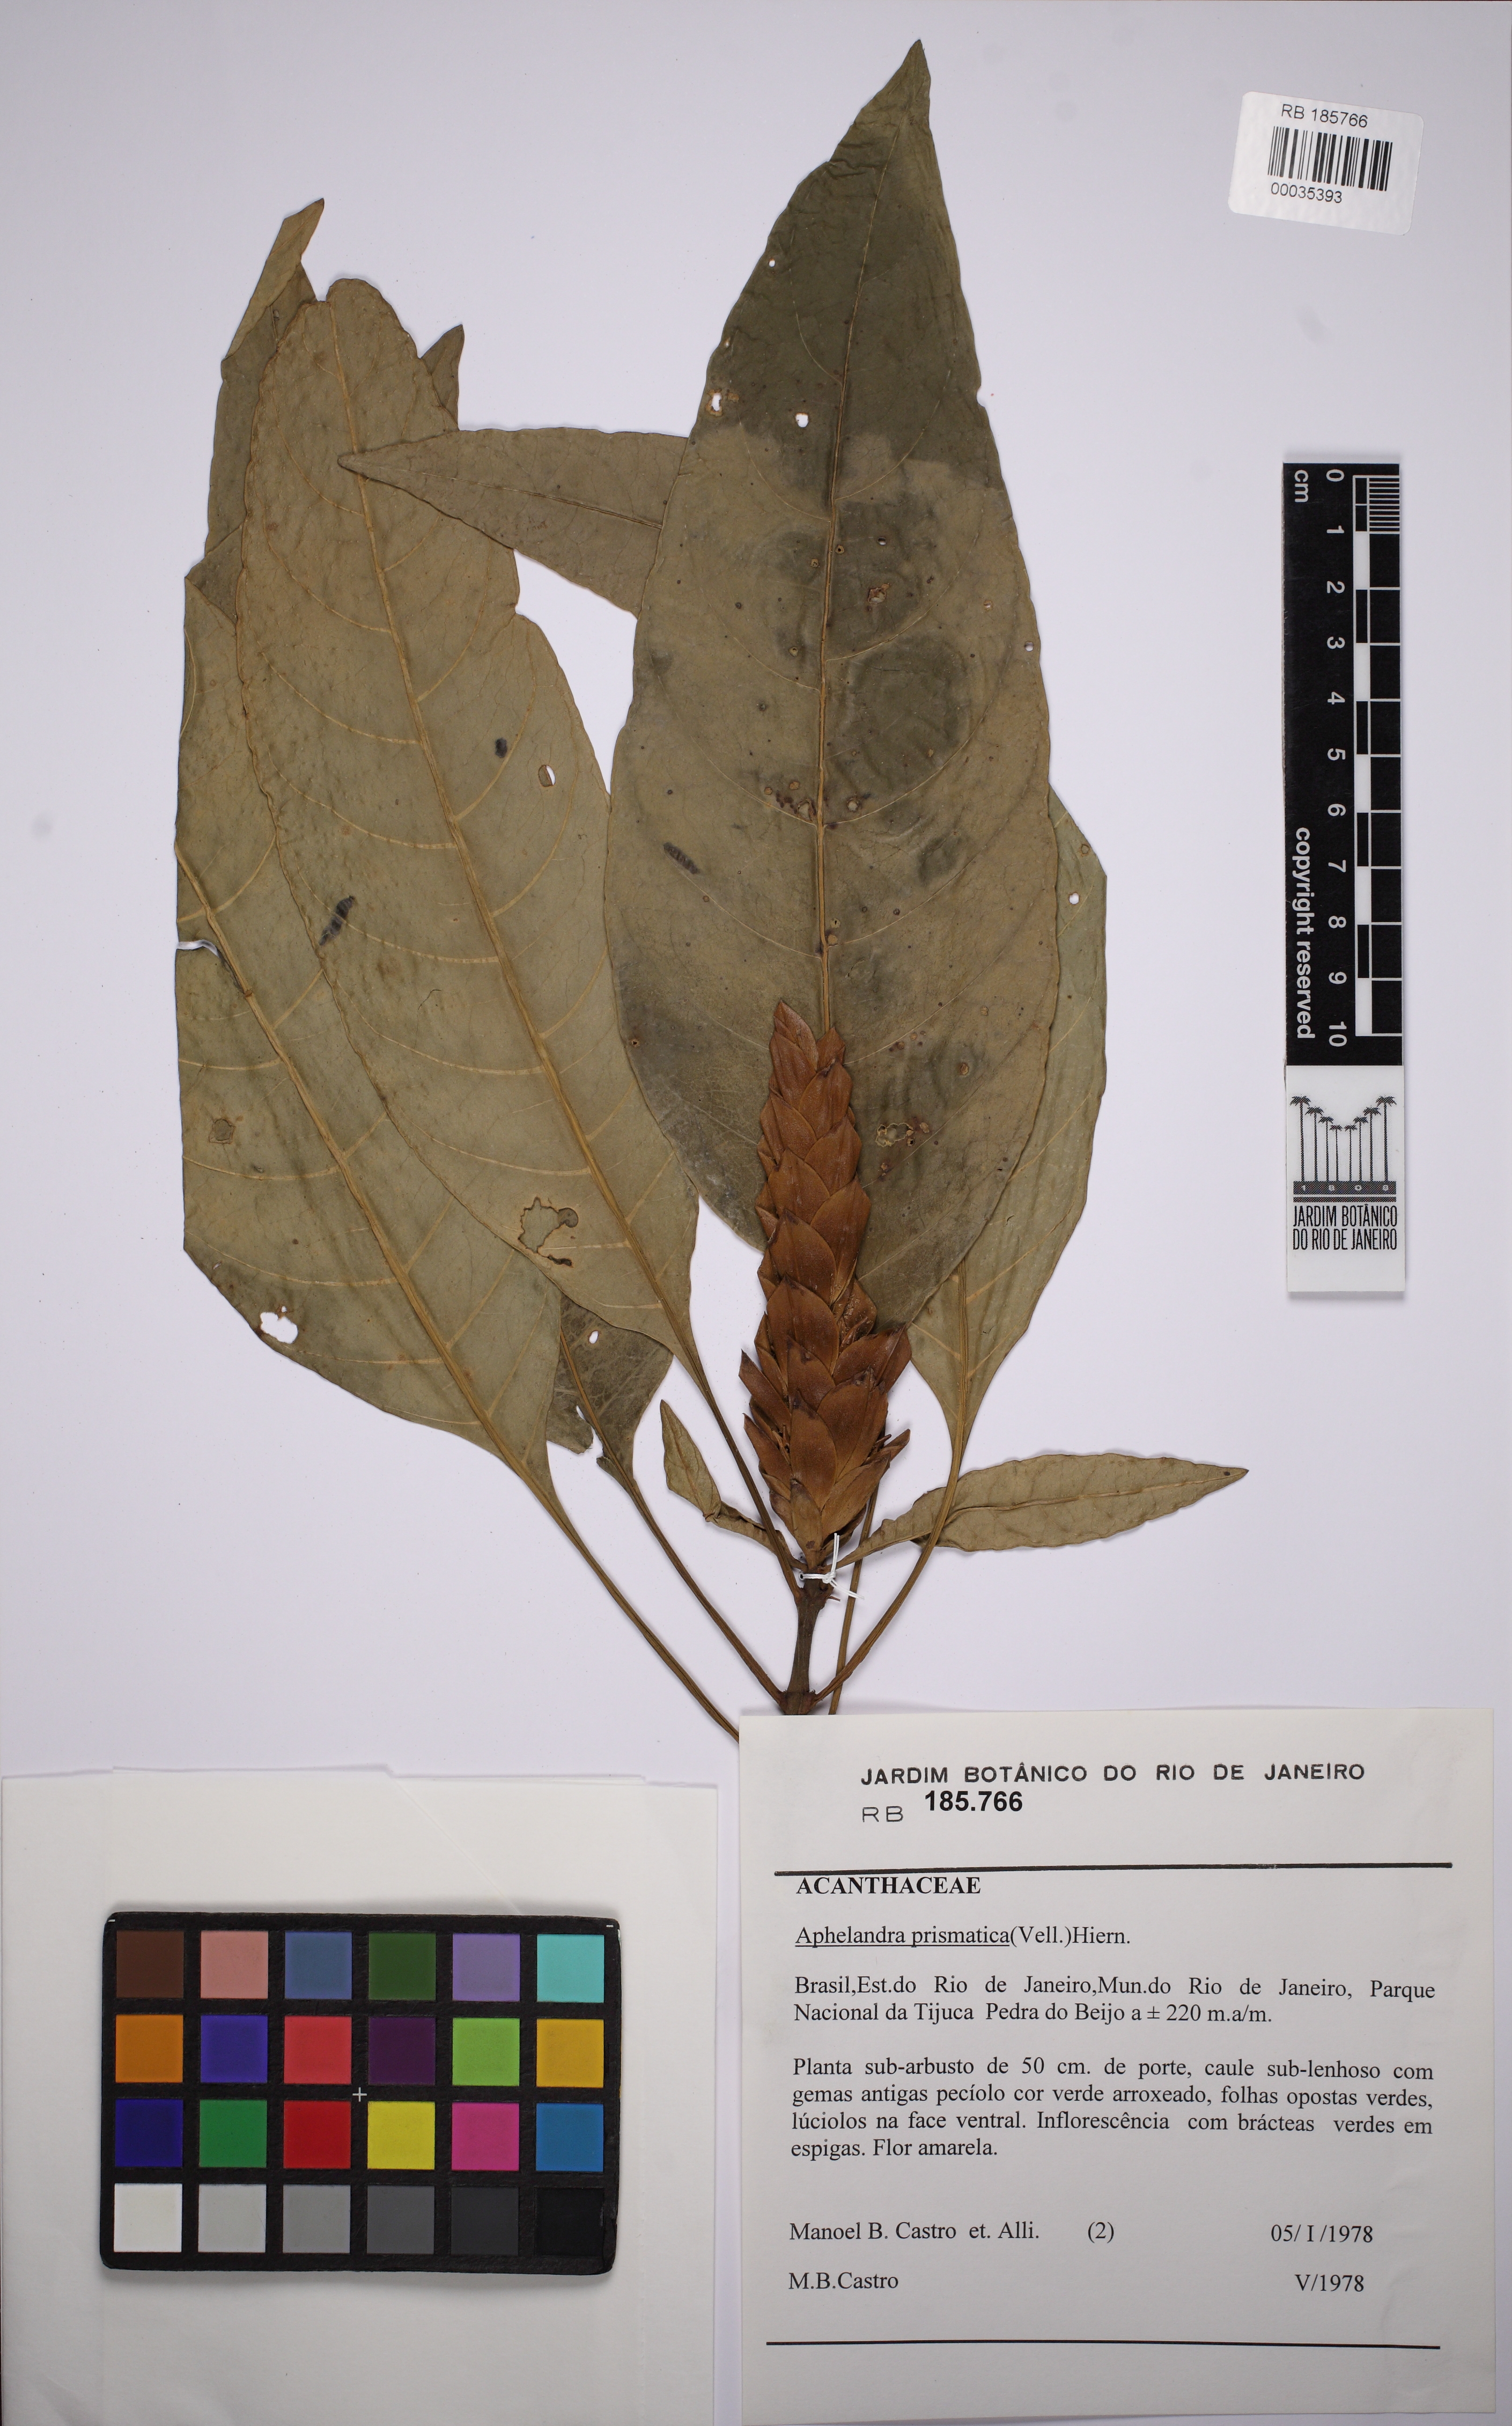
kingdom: Plantae
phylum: Tracheophyta
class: Magnoliopsida
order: Lamiales
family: Acanthaceae
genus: Aphelandra
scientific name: Aphelandra
